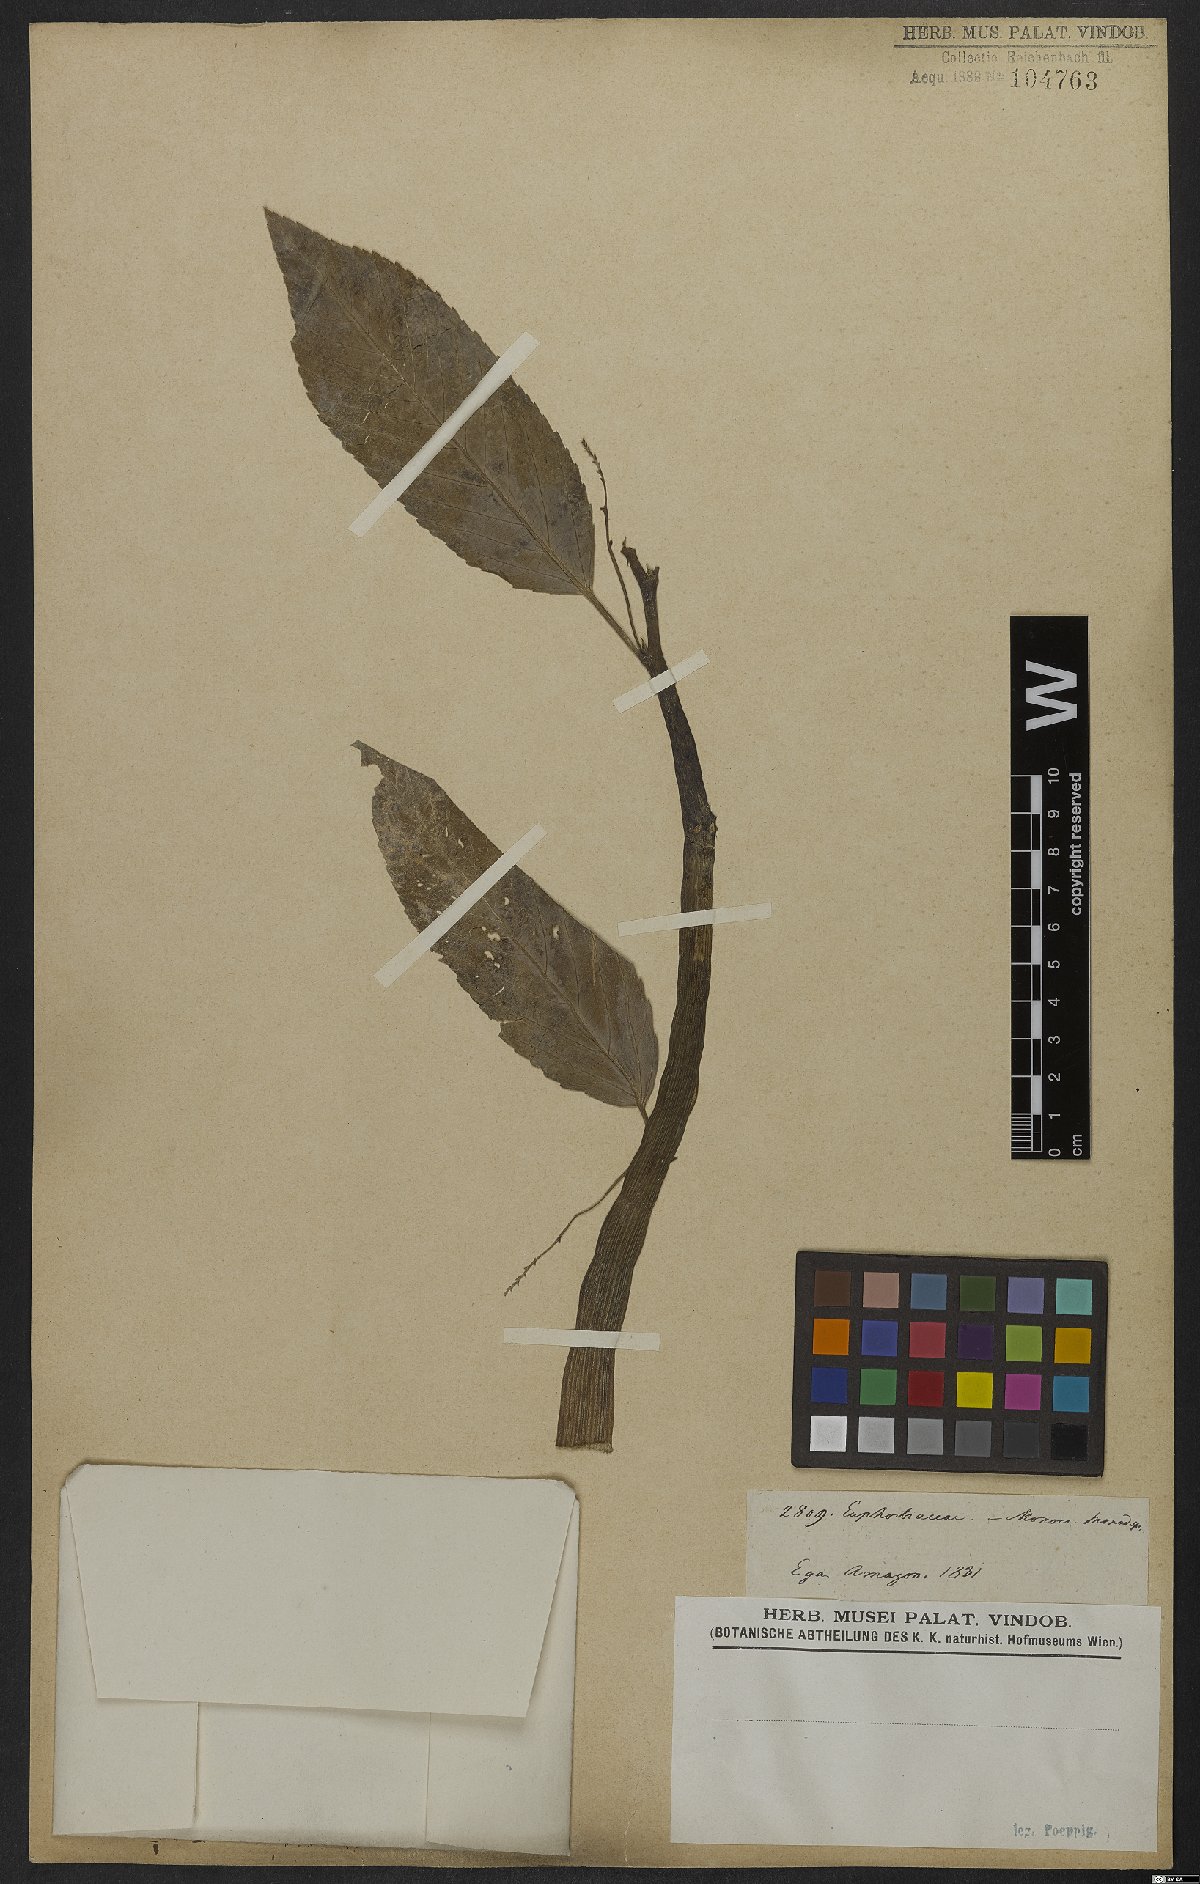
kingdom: Plantae
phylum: Tracheophyta
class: Magnoliopsida
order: Malpighiales
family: Euphorbiaceae
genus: Caperonia
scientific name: Caperonia castaneifolia
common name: Chestnutleaf false croton
